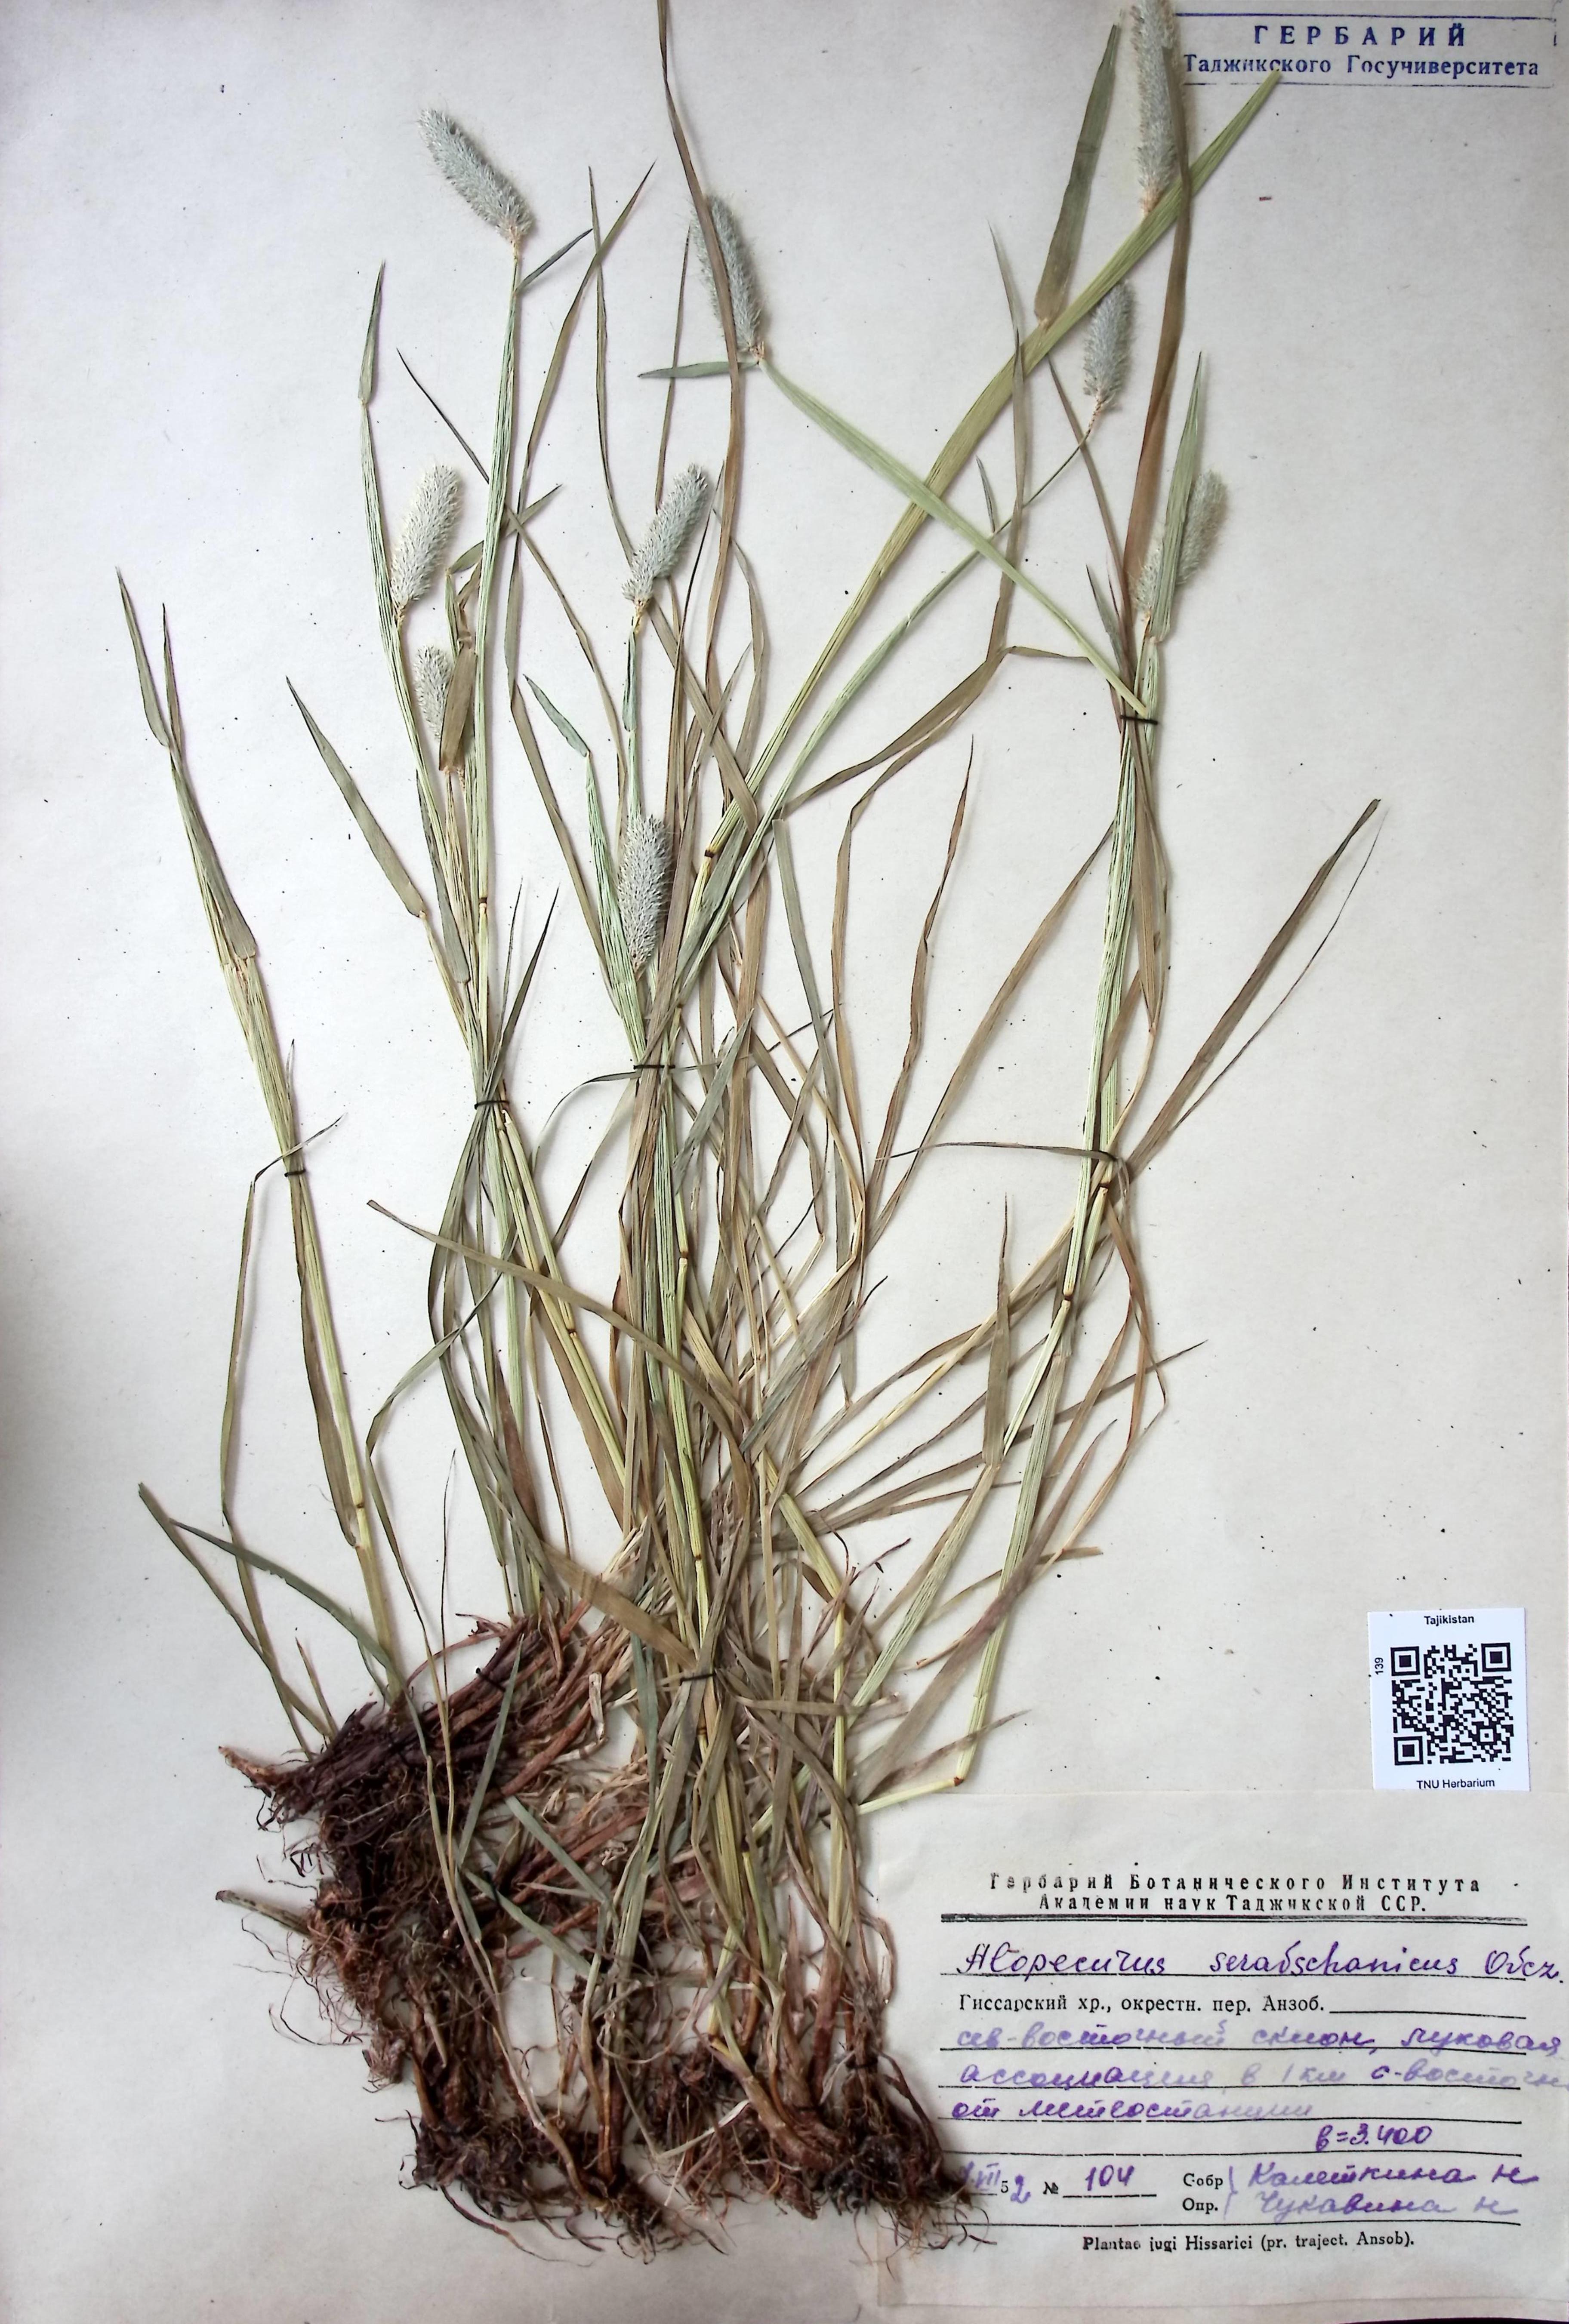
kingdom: Plantae
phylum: Tracheophyta
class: Liliopsida
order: Poales
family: Poaceae
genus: Alopecurus
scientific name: Alopecurus pratensis
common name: Meadow foxtail
